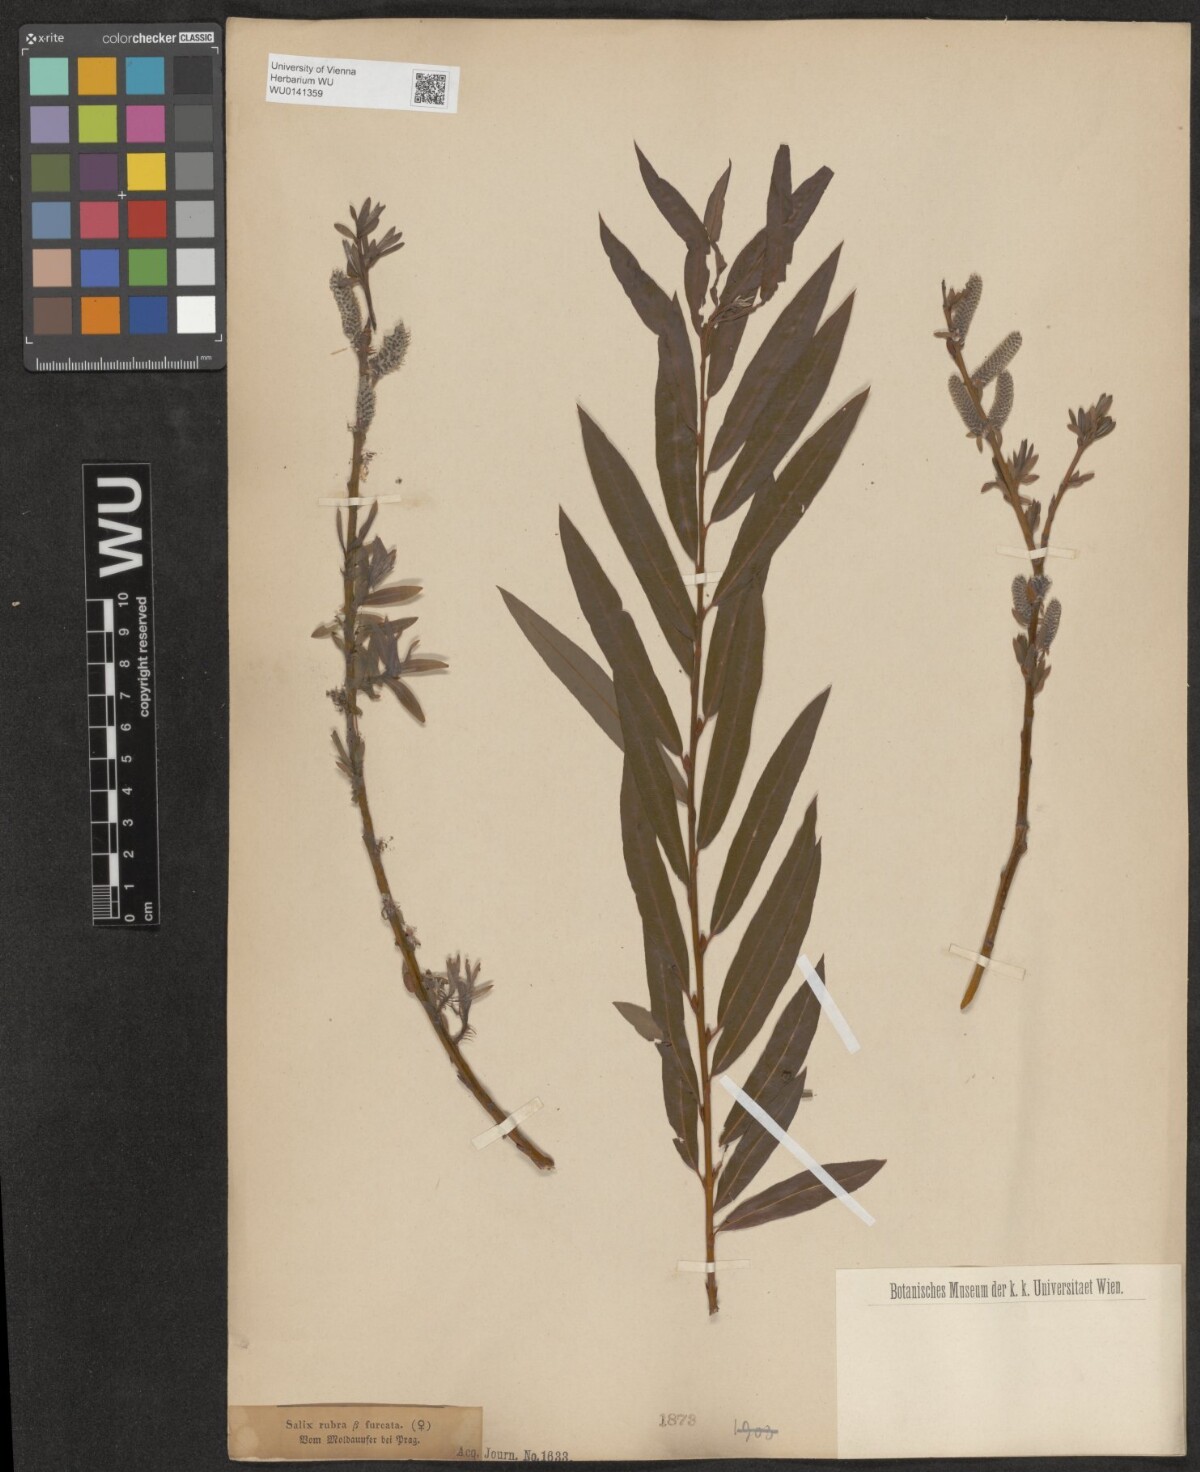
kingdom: Plantae
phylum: Tracheophyta
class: Magnoliopsida
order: Malpighiales
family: Salicaceae
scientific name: Salicaceae
